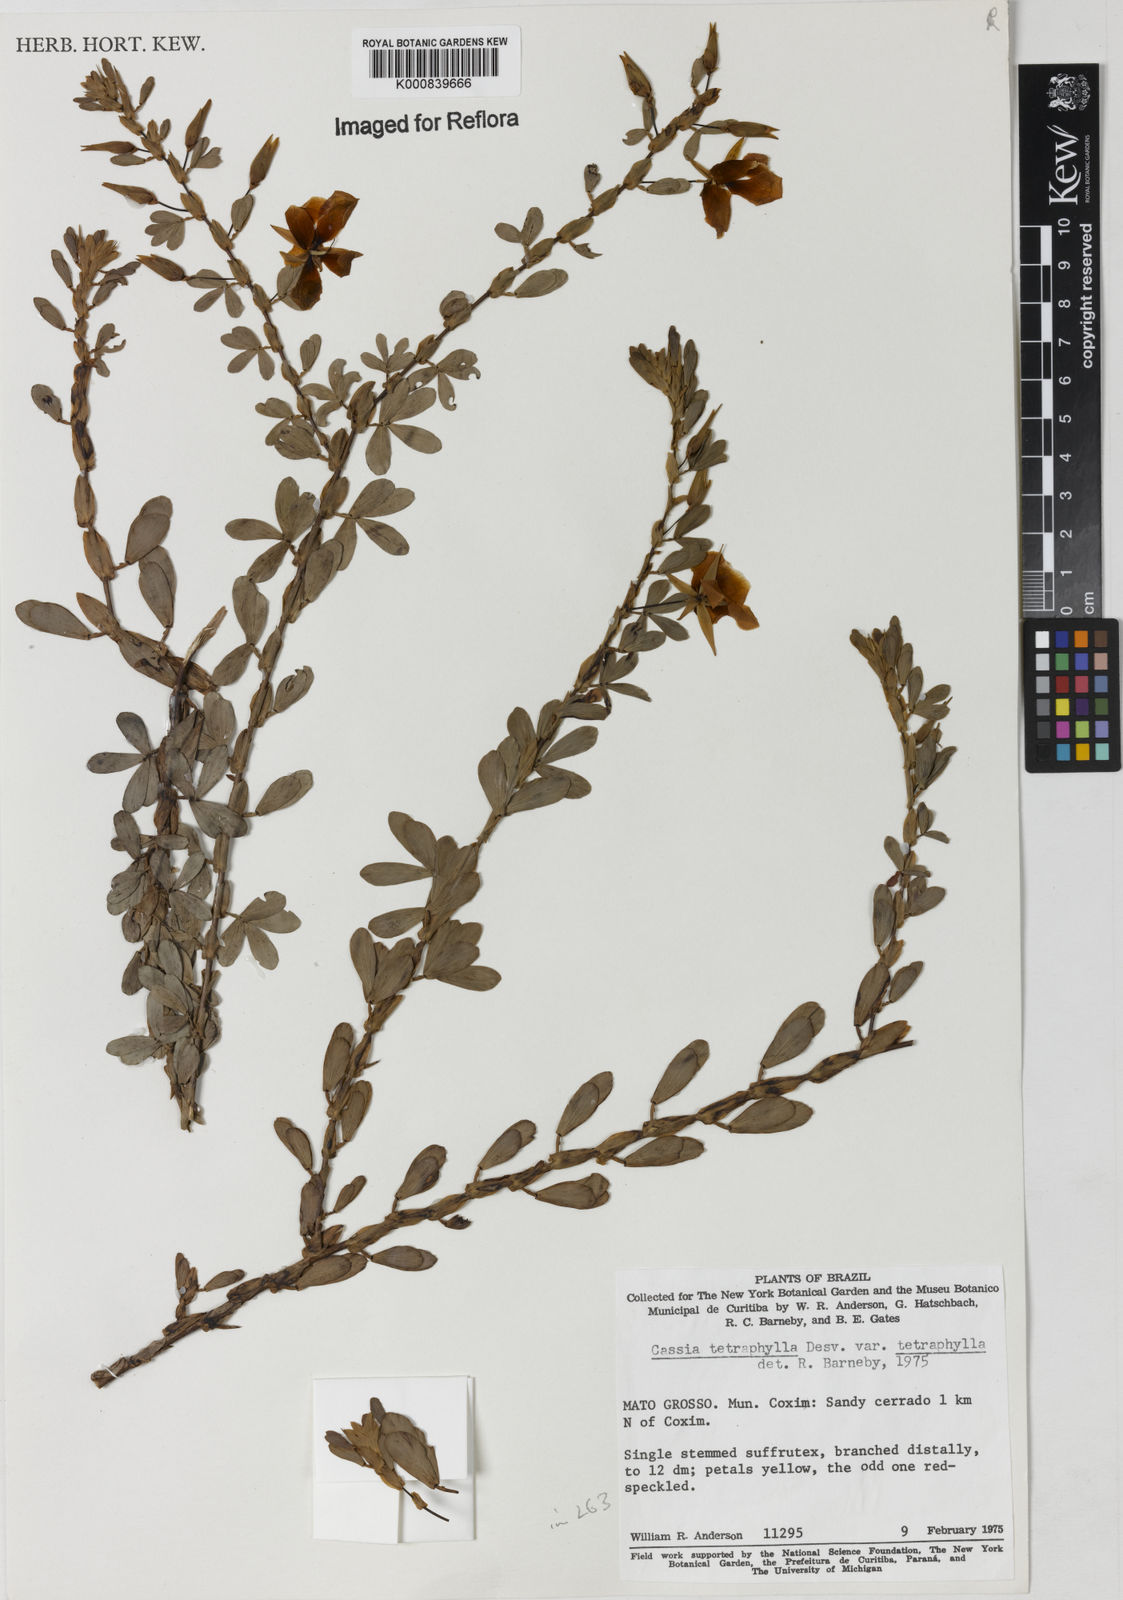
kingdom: Plantae
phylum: Tracheophyta
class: Magnoliopsida
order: Fabales
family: Fabaceae
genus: Chamaecrista
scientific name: Chamaecrista desvauxii
